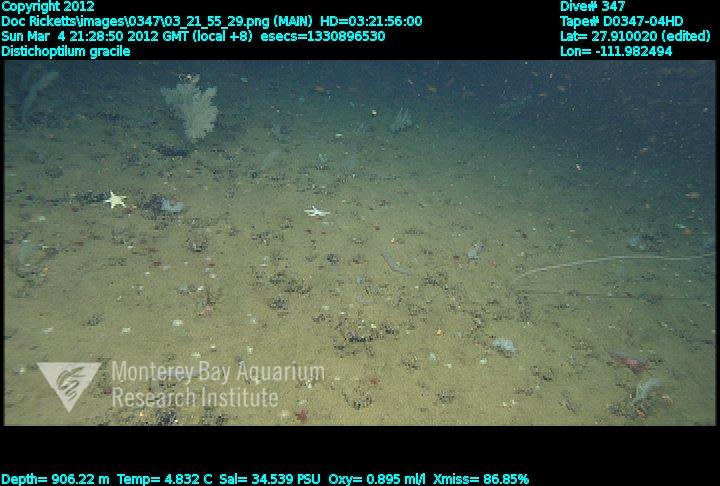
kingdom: Animalia
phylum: Cnidaria
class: Anthozoa
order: Scleralcyonacea
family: Protoptilidae
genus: Distichoptilum
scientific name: Distichoptilum gracile
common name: Slender sea pen
